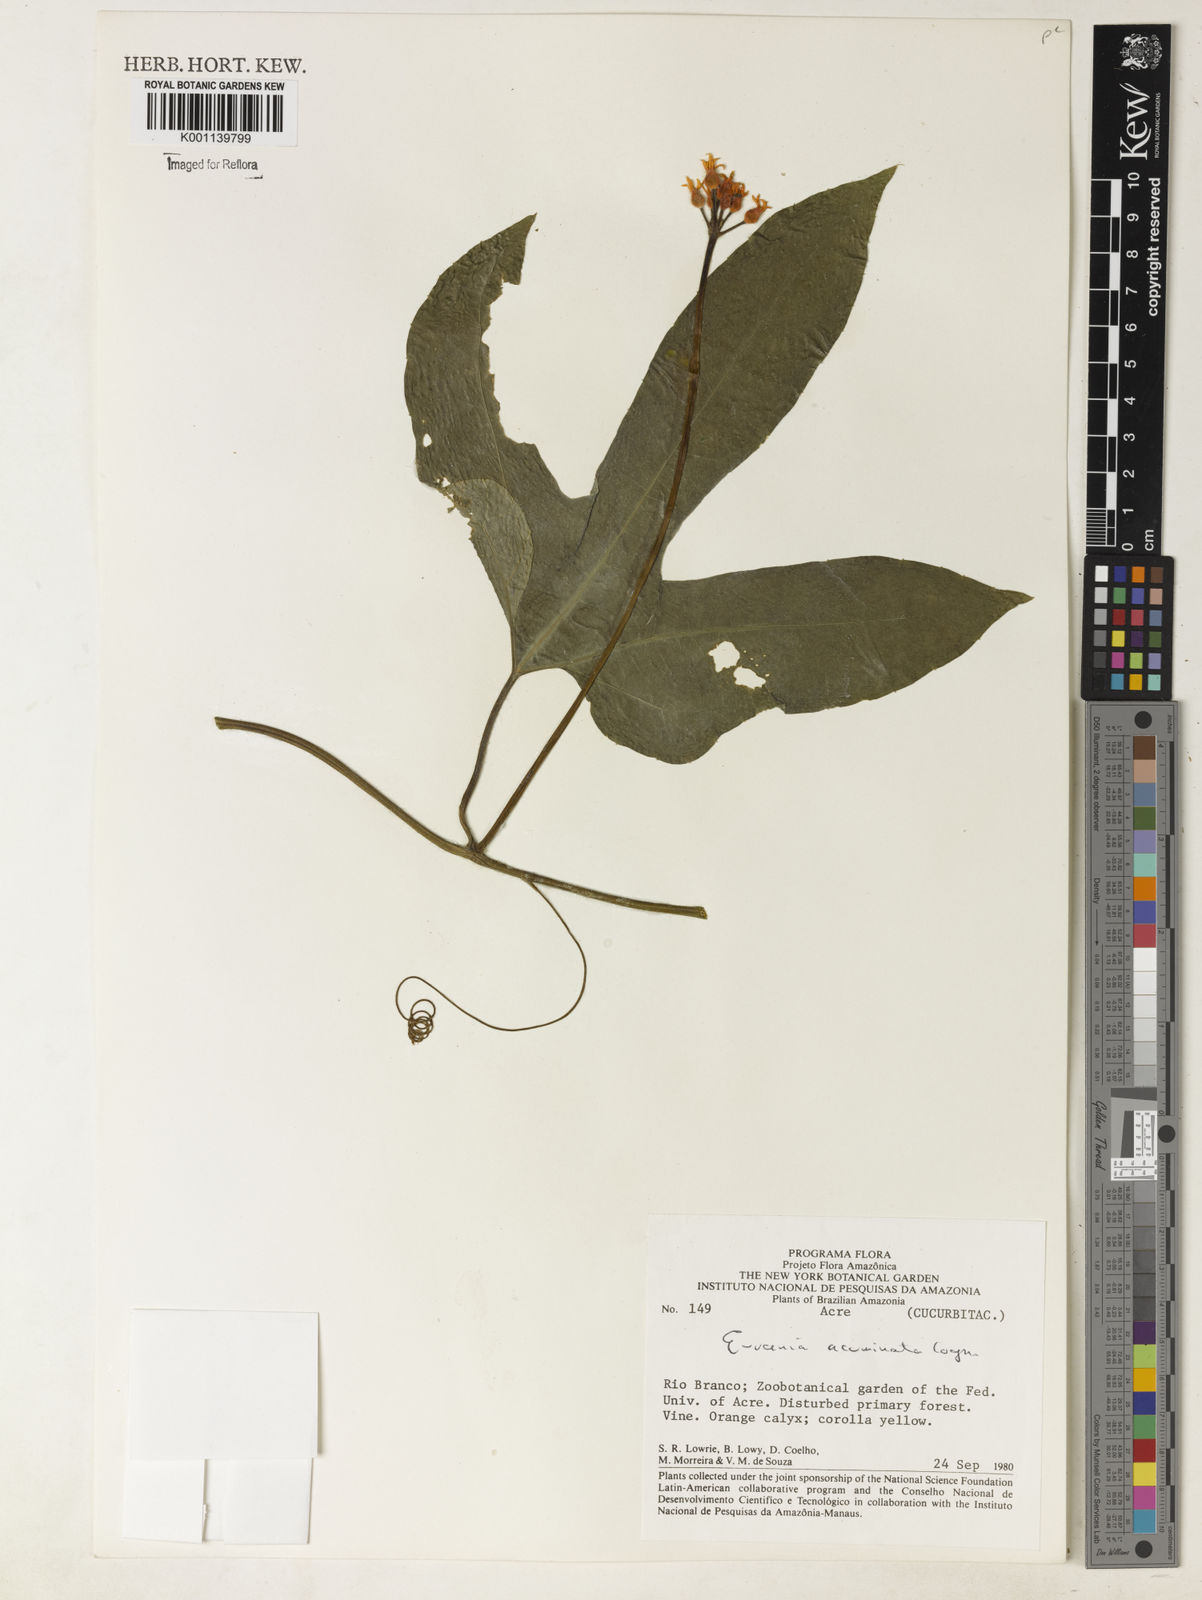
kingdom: Plantae
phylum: Tracheophyta
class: Magnoliopsida
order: Cucurbitales
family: Cucurbitaceae
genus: Gurania
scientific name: Gurania acuminata
